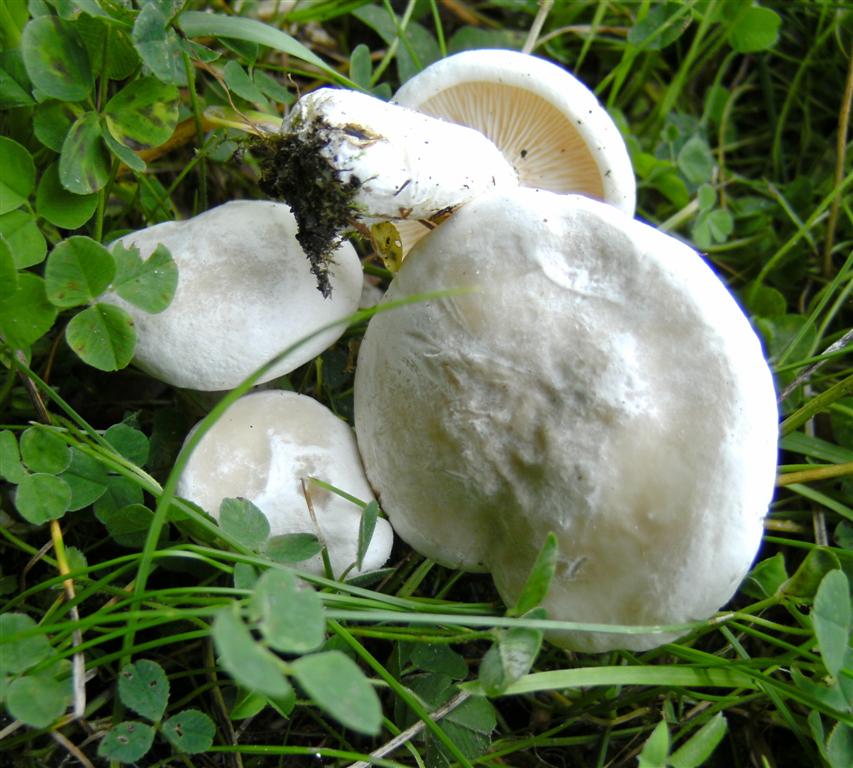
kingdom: Fungi
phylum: Basidiomycota
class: Agaricomycetes
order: Agaricales
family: Entolomataceae
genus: Clitopilus
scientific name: Clitopilus prunulus
